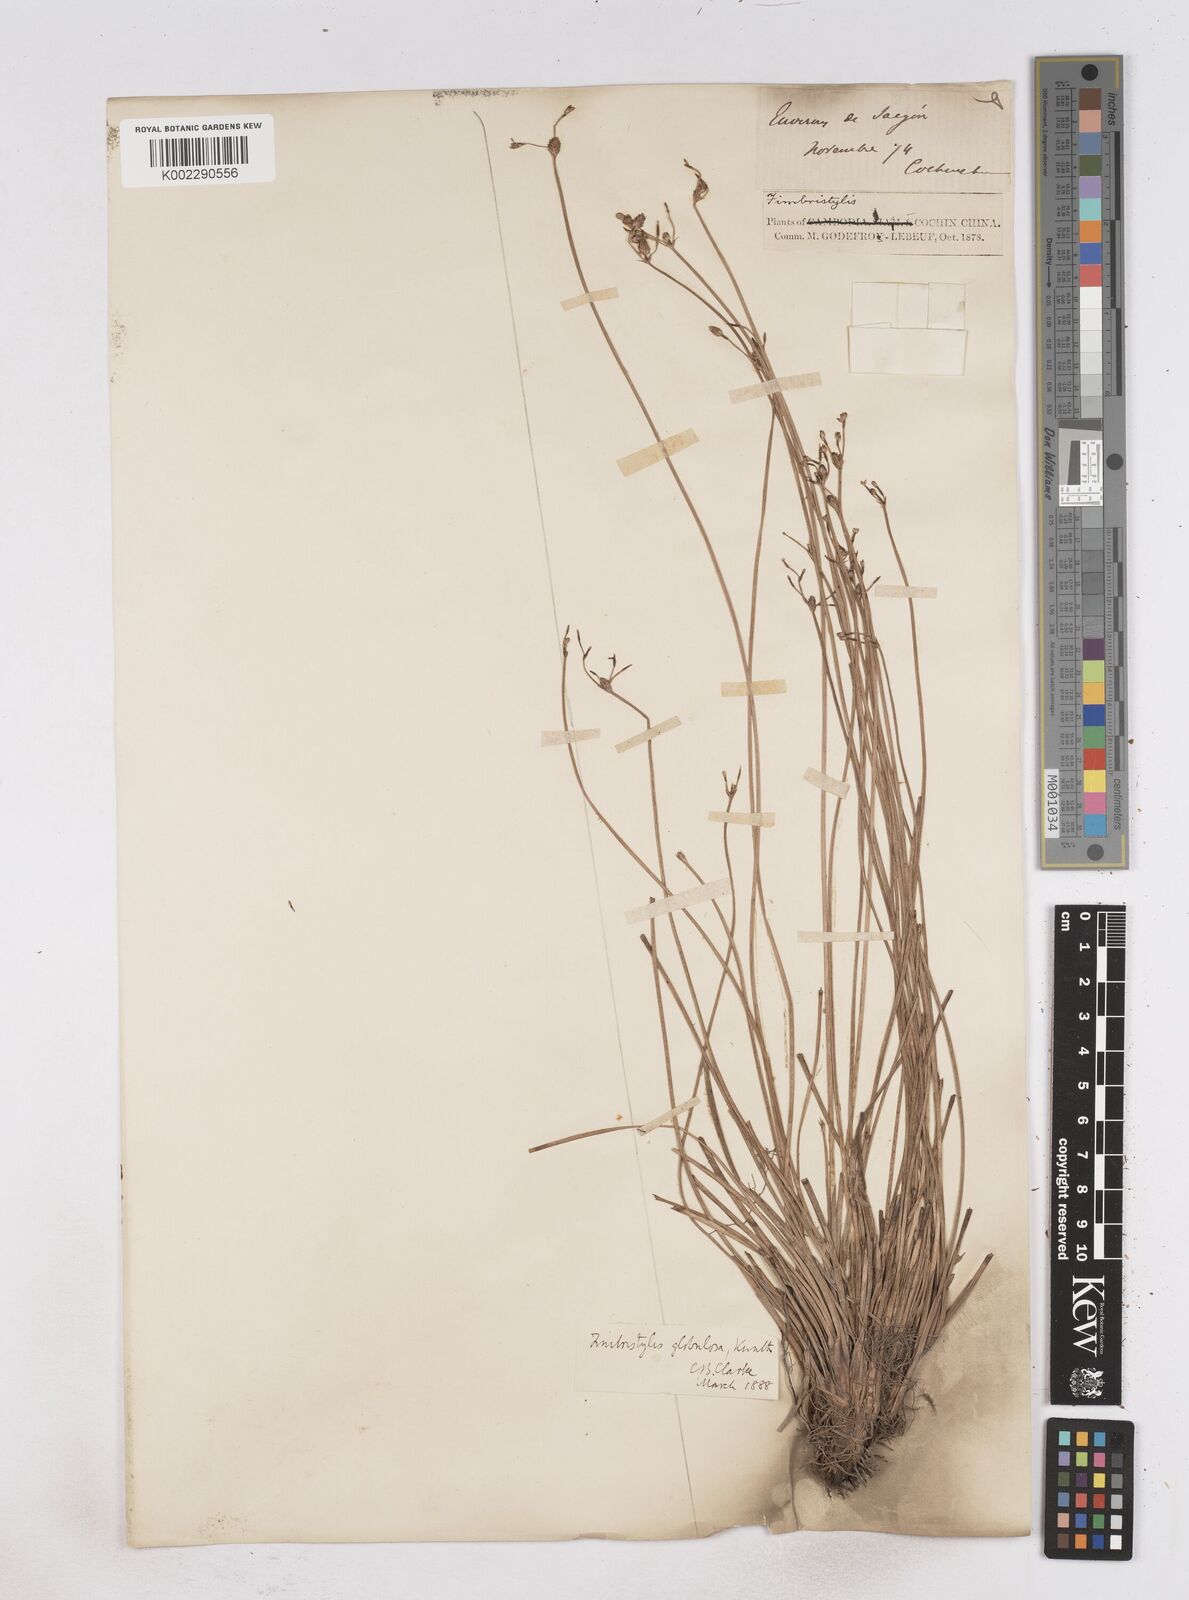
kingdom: Plantae
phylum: Tracheophyta
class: Liliopsida
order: Poales
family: Cyperaceae
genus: Fimbristylis
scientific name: Fimbristylis umbellaris
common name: Globular fimbristylis
